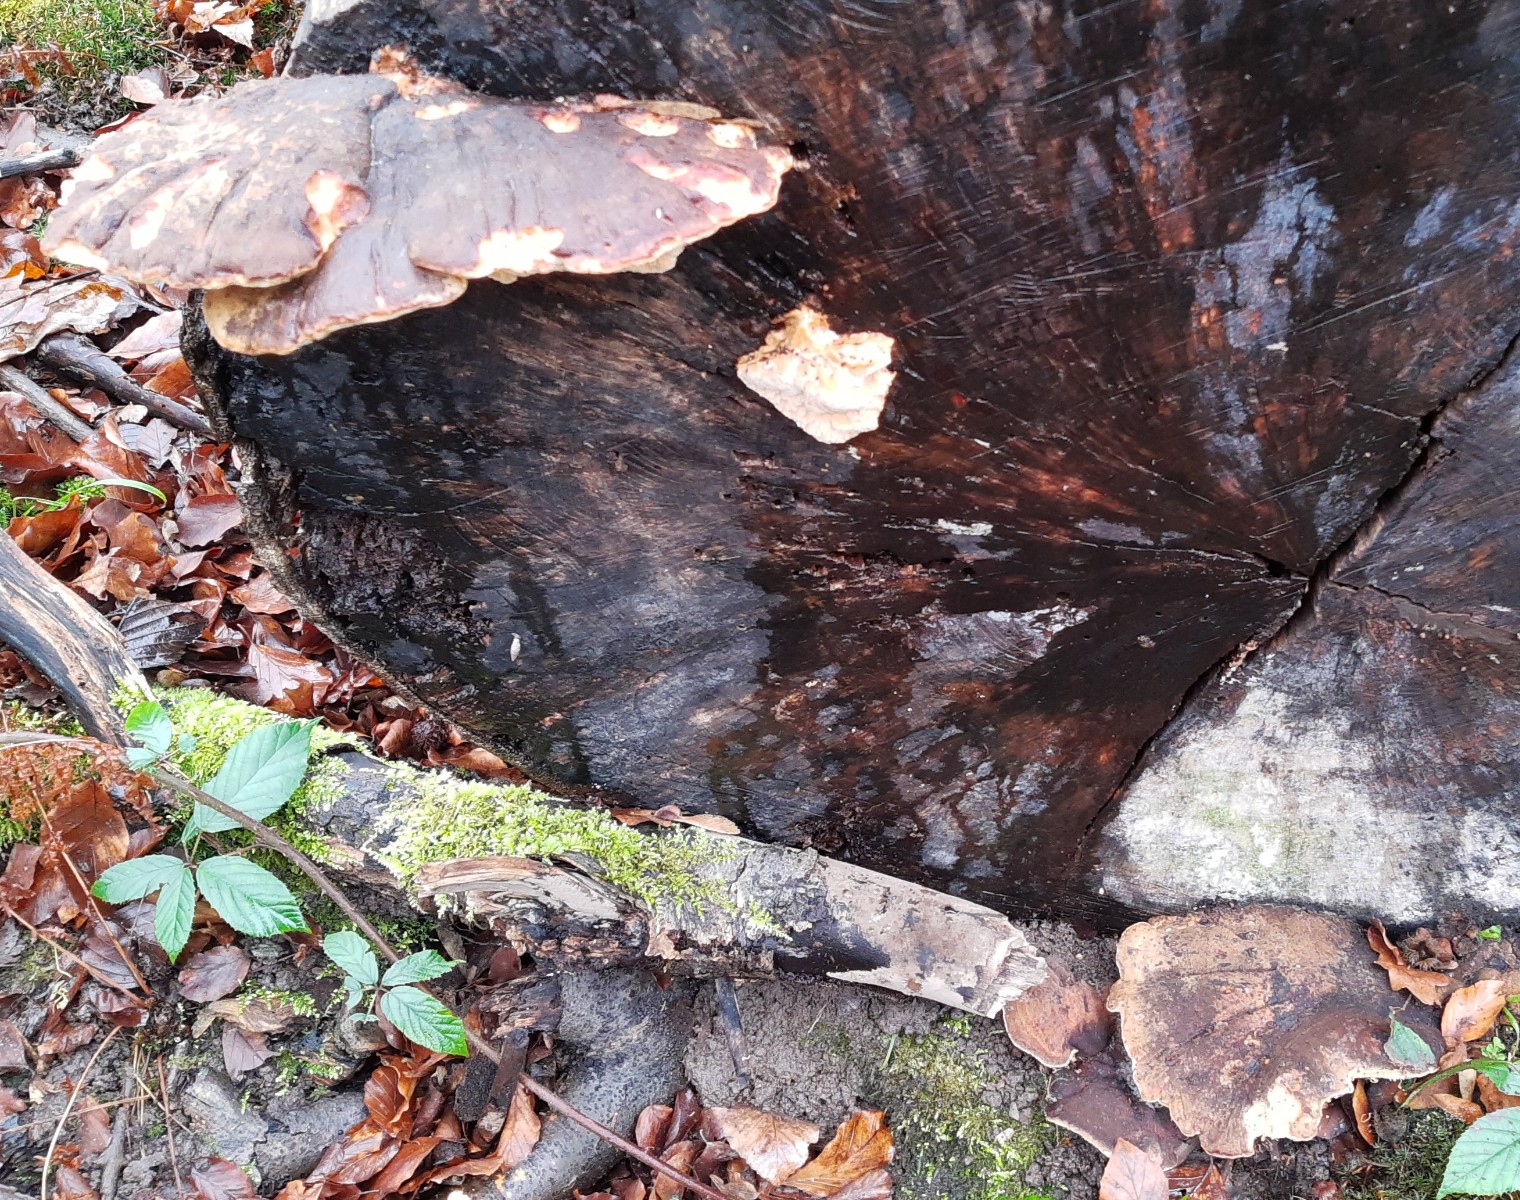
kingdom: Fungi
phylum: Basidiomycota
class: Agaricomycetes
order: Polyporales
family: Ischnodermataceae
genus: Ischnoderma
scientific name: Ischnoderma resinosum
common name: løv-tjæreporesvamp
